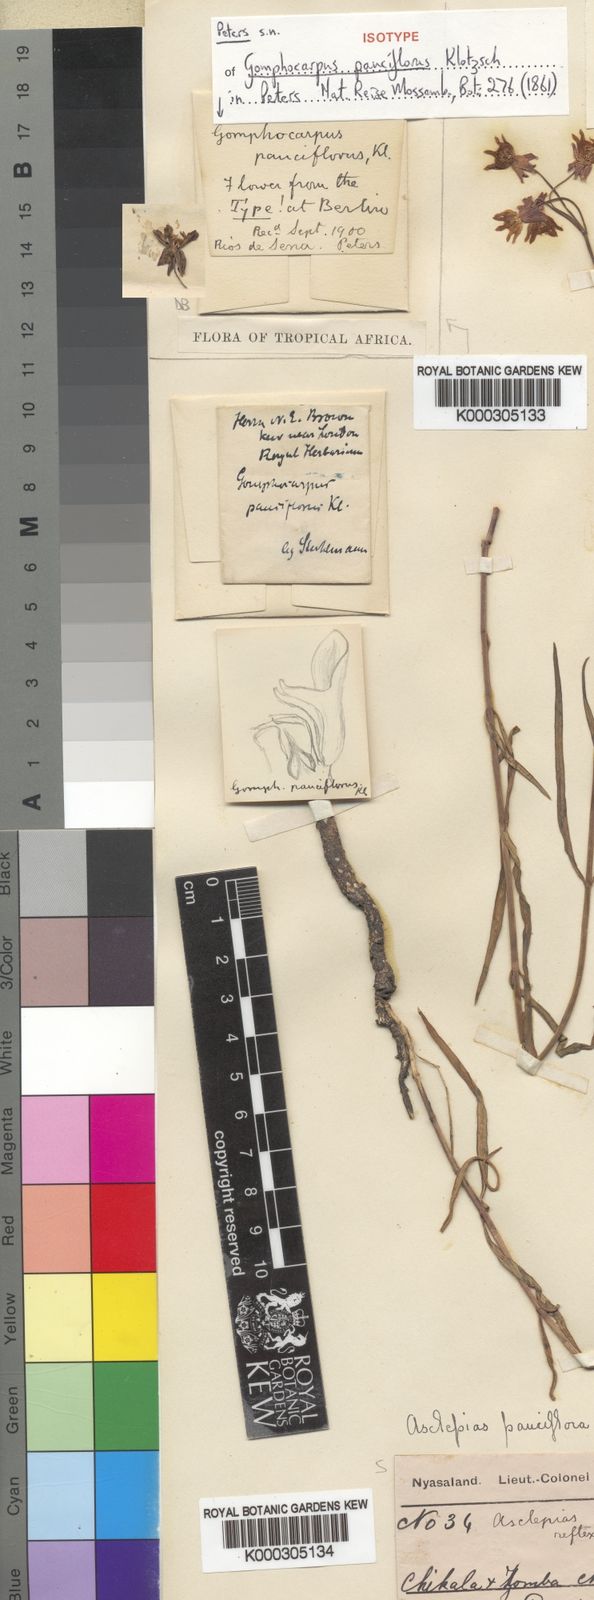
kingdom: Plantae
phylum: Tracheophyta
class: Magnoliopsida
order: Gentianales
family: Apocynaceae
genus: Stathmostelma
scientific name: Stathmostelma pauciflorum
